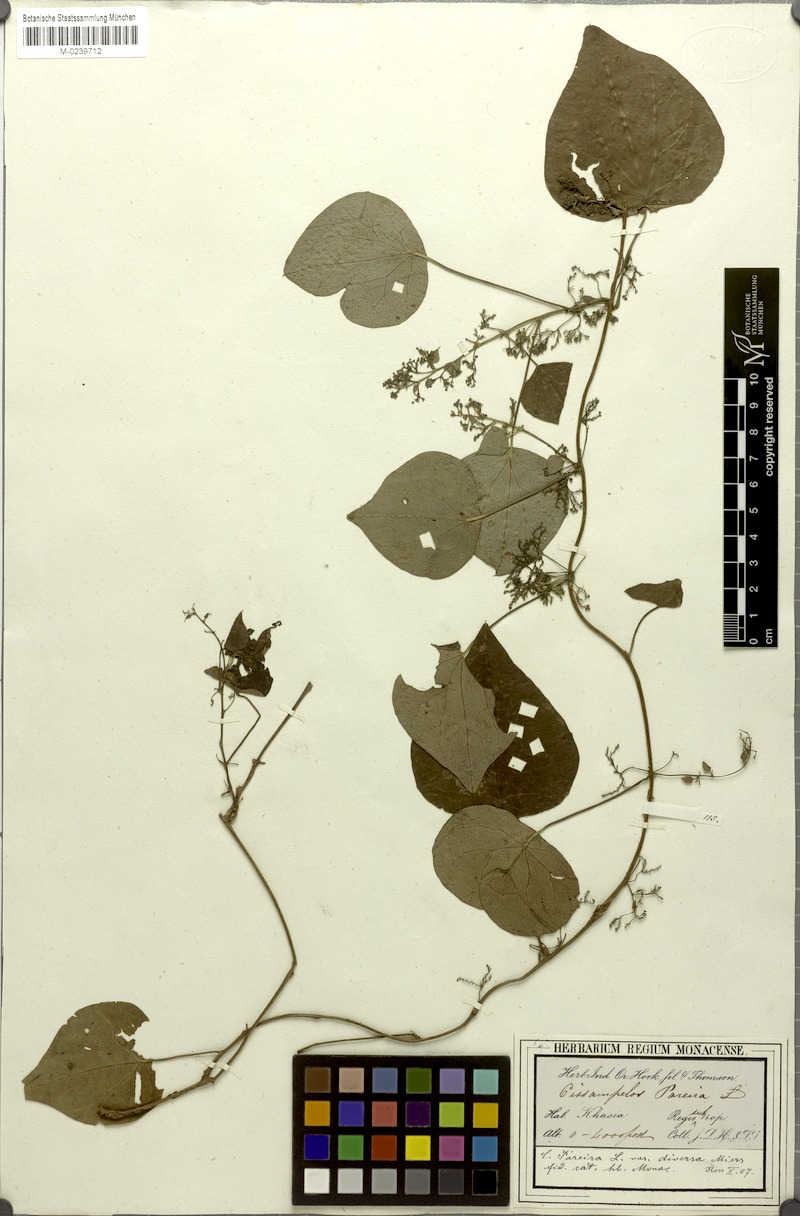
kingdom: Plantae
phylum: Tracheophyta
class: Magnoliopsida
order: Ranunculales
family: Menispermaceae
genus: Cissampelos
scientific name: Cissampelos pareira
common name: Velvetleaf
